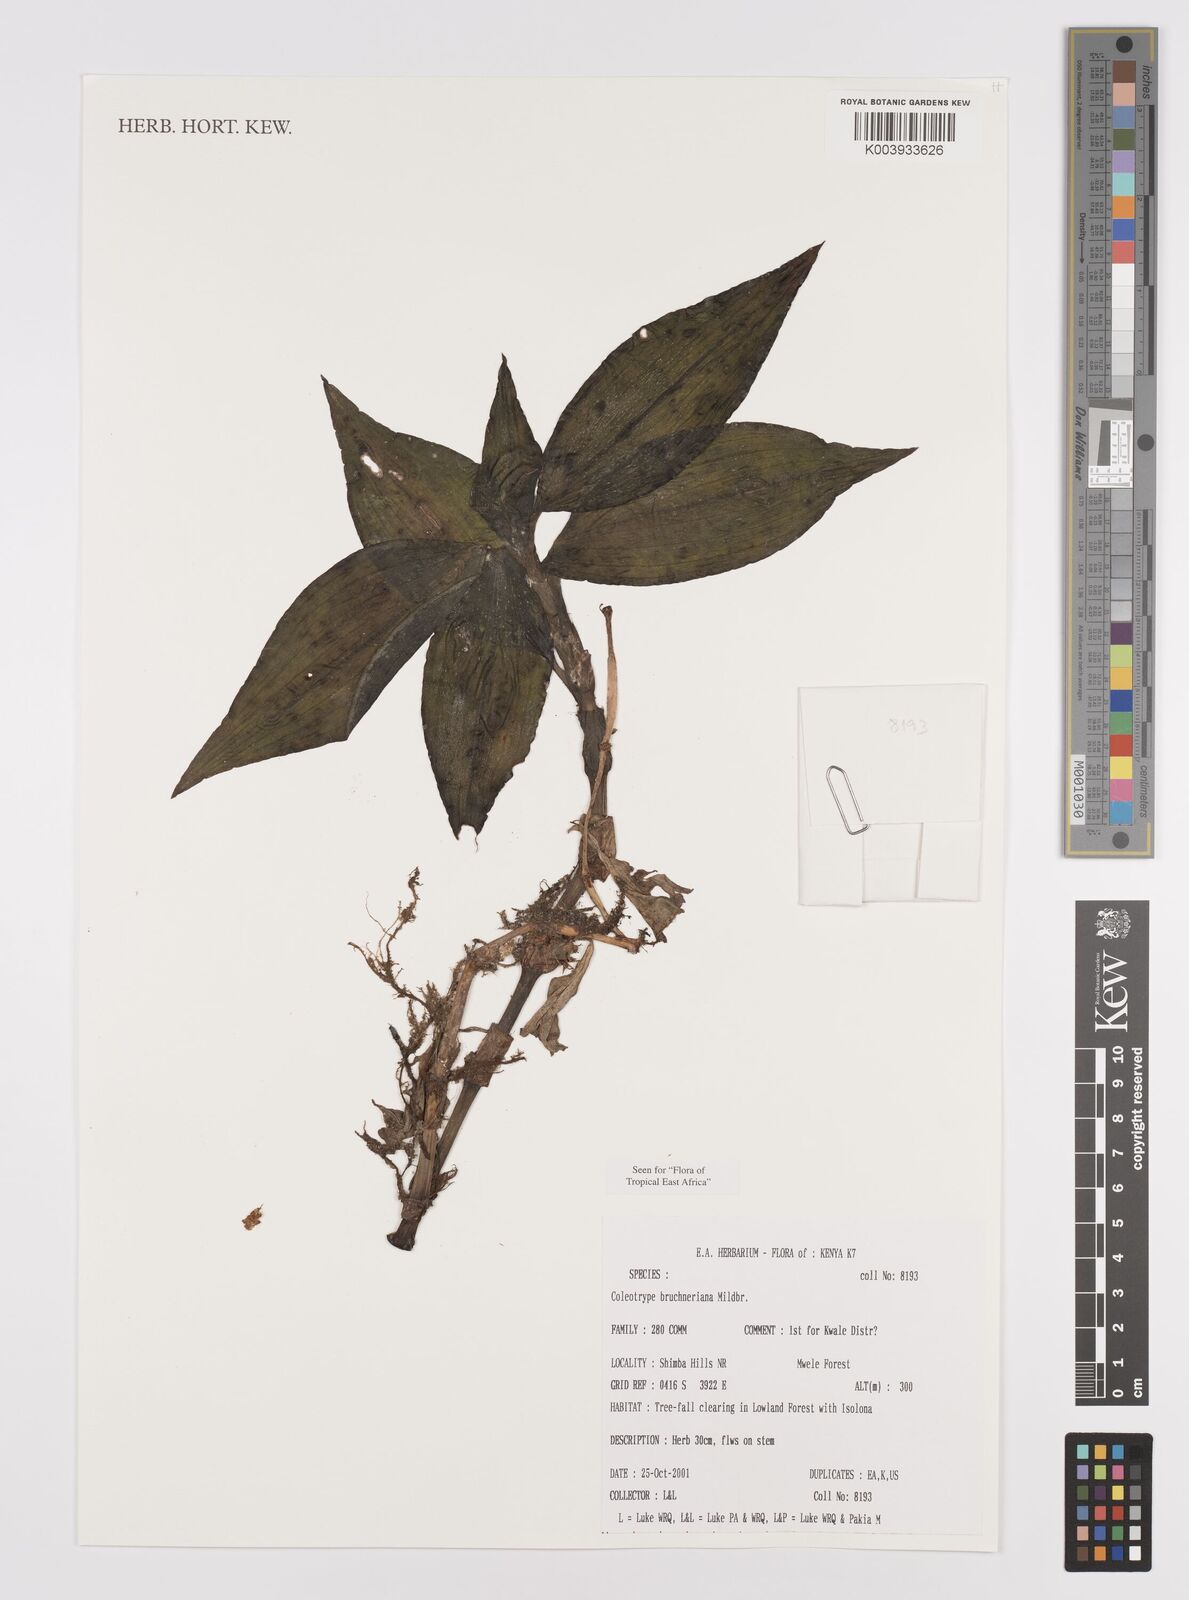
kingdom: Plantae
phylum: Tracheophyta
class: Liliopsida
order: Commelinales
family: Commelinaceae
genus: Coleotrype
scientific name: Coleotrype brueckneriana
